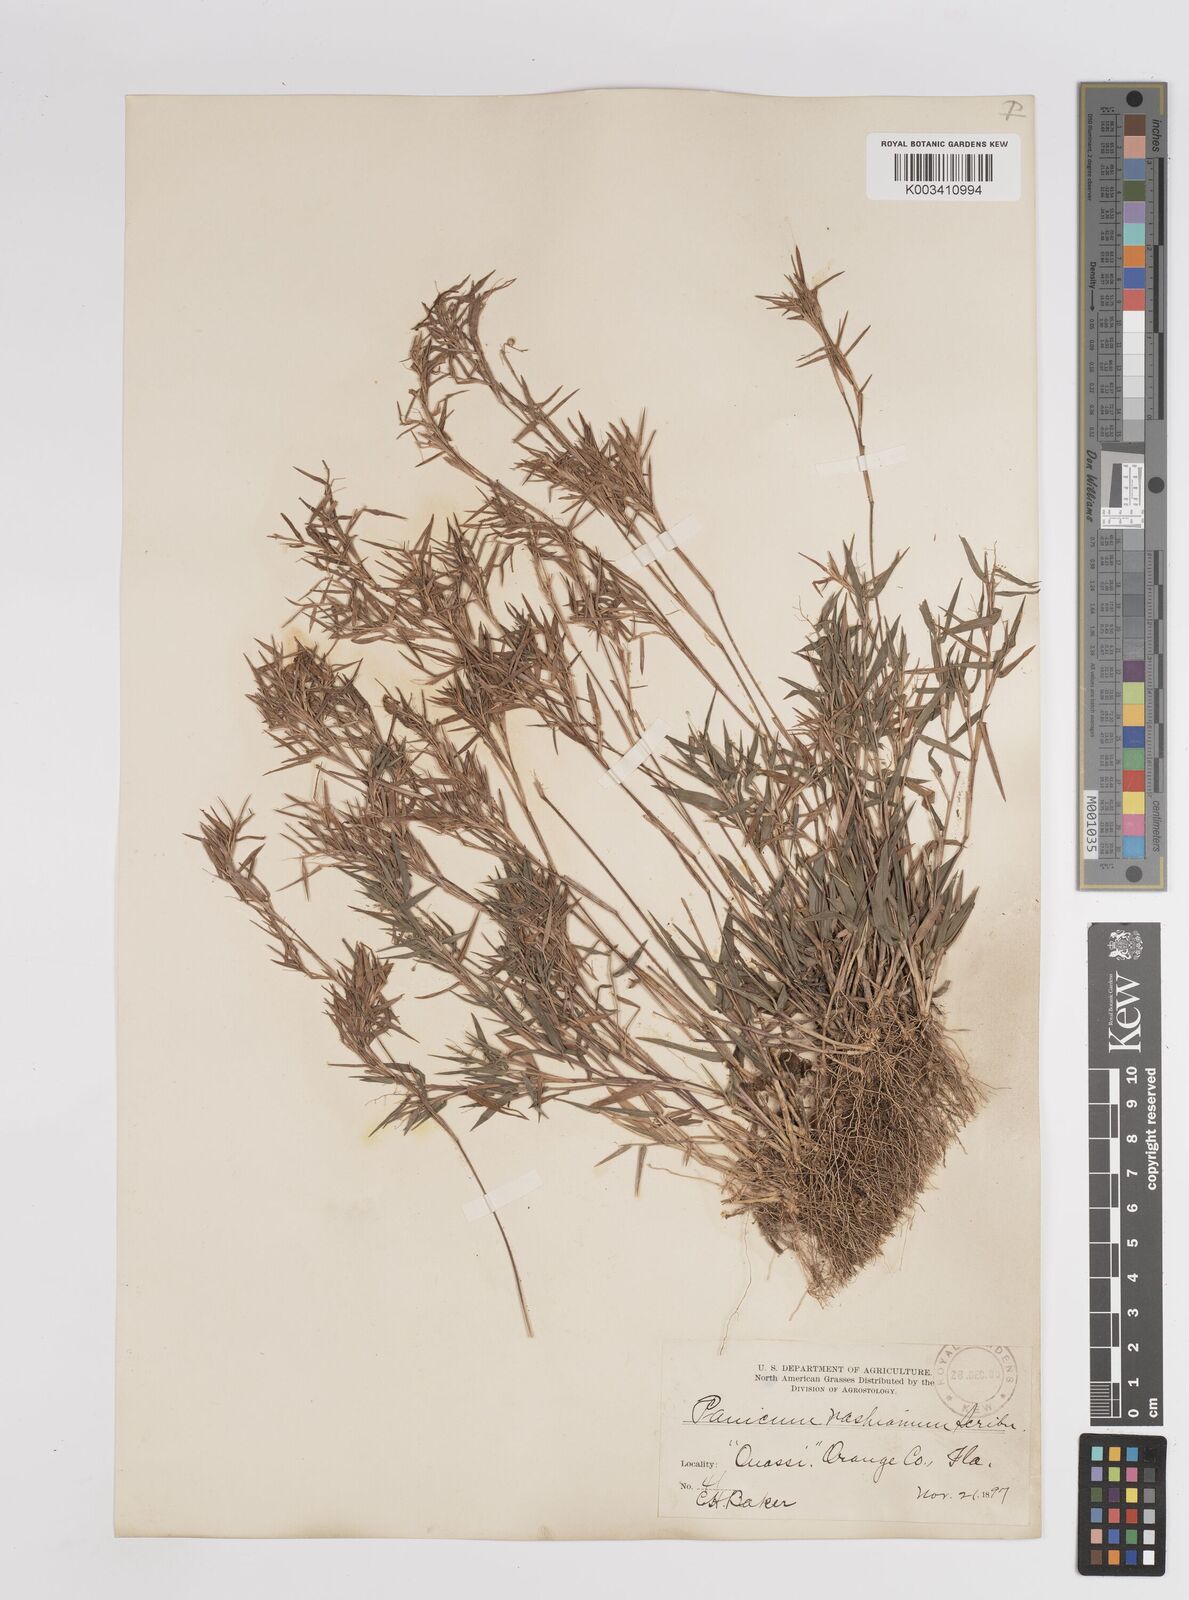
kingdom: Plantae
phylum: Tracheophyta
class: Liliopsida
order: Poales
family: Poaceae
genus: Dichanthelium
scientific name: Dichanthelium portoricense
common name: American panicgrass
